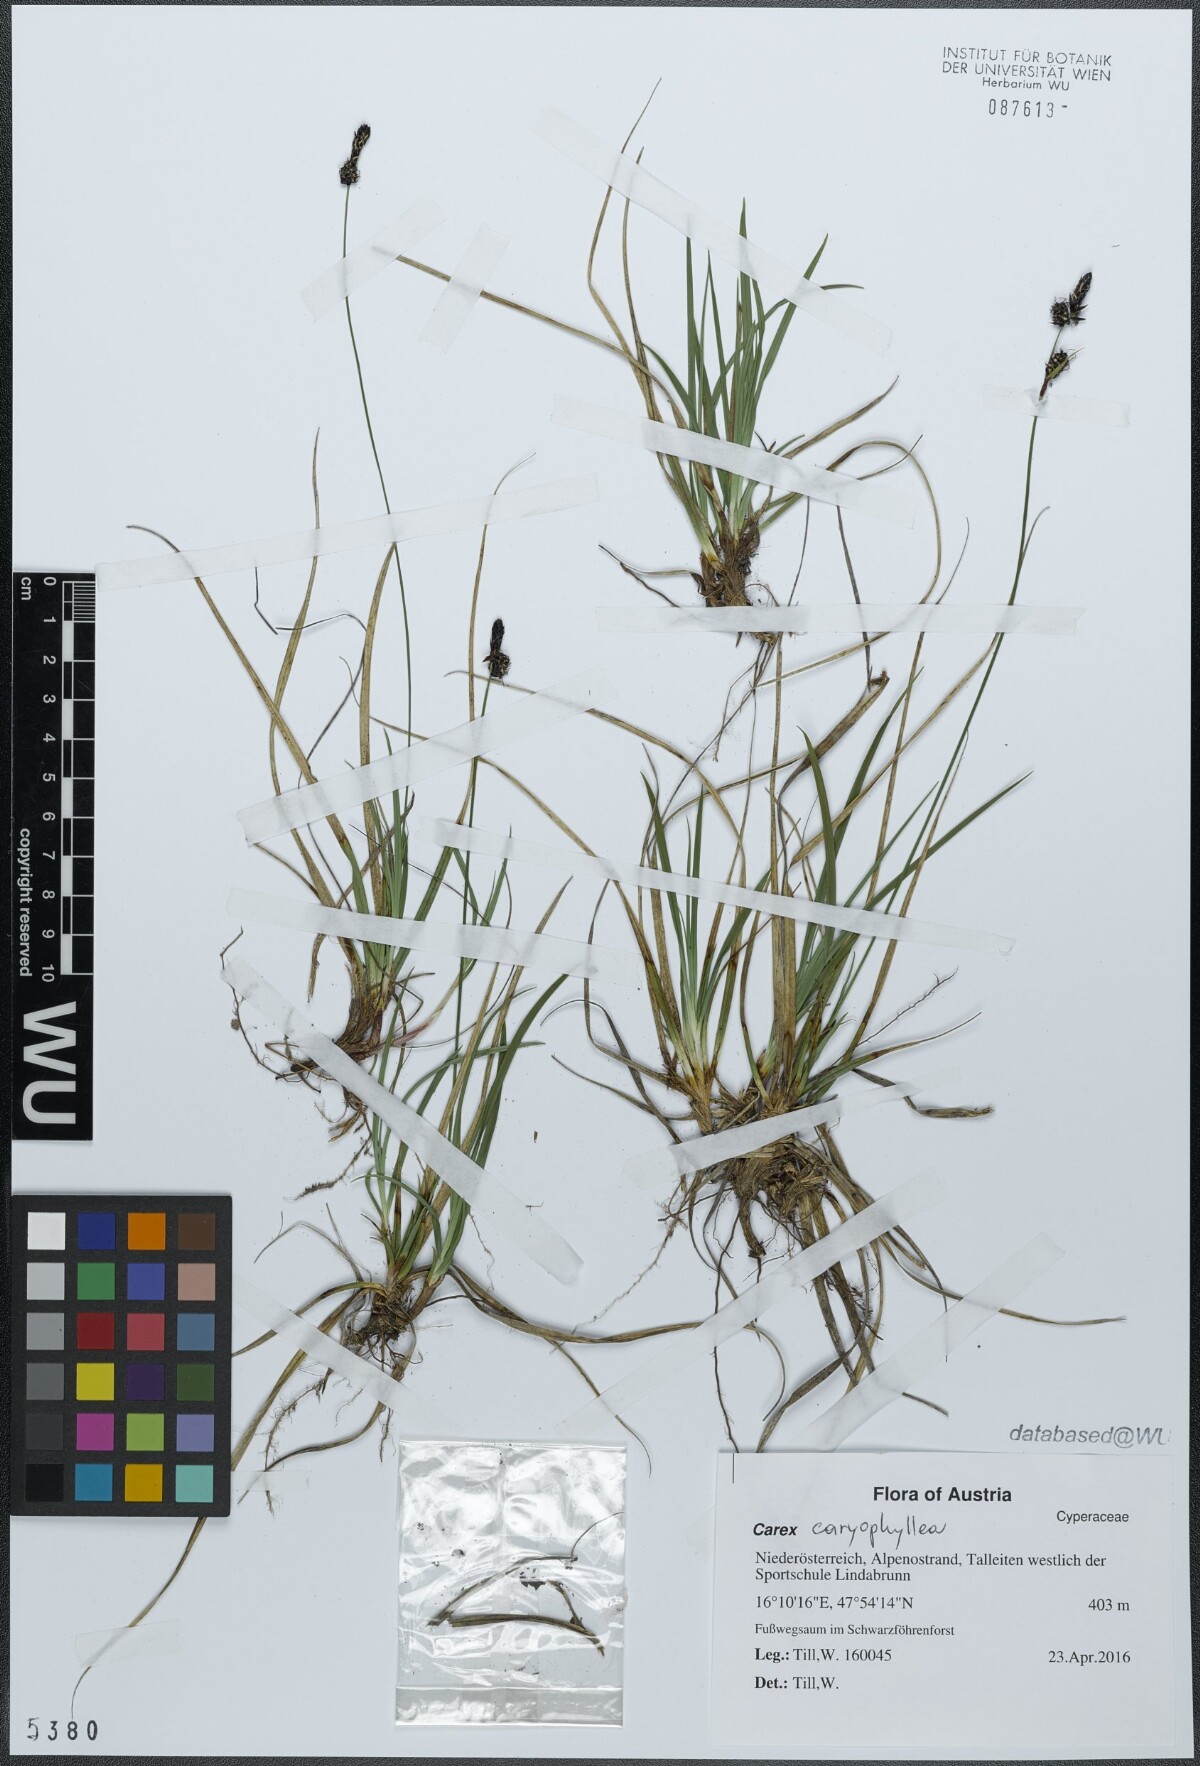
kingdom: Plantae
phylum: Tracheophyta
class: Liliopsida
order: Poales
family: Cyperaceae
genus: Carex
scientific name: Carex caryophyllea
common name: Spring sedge
